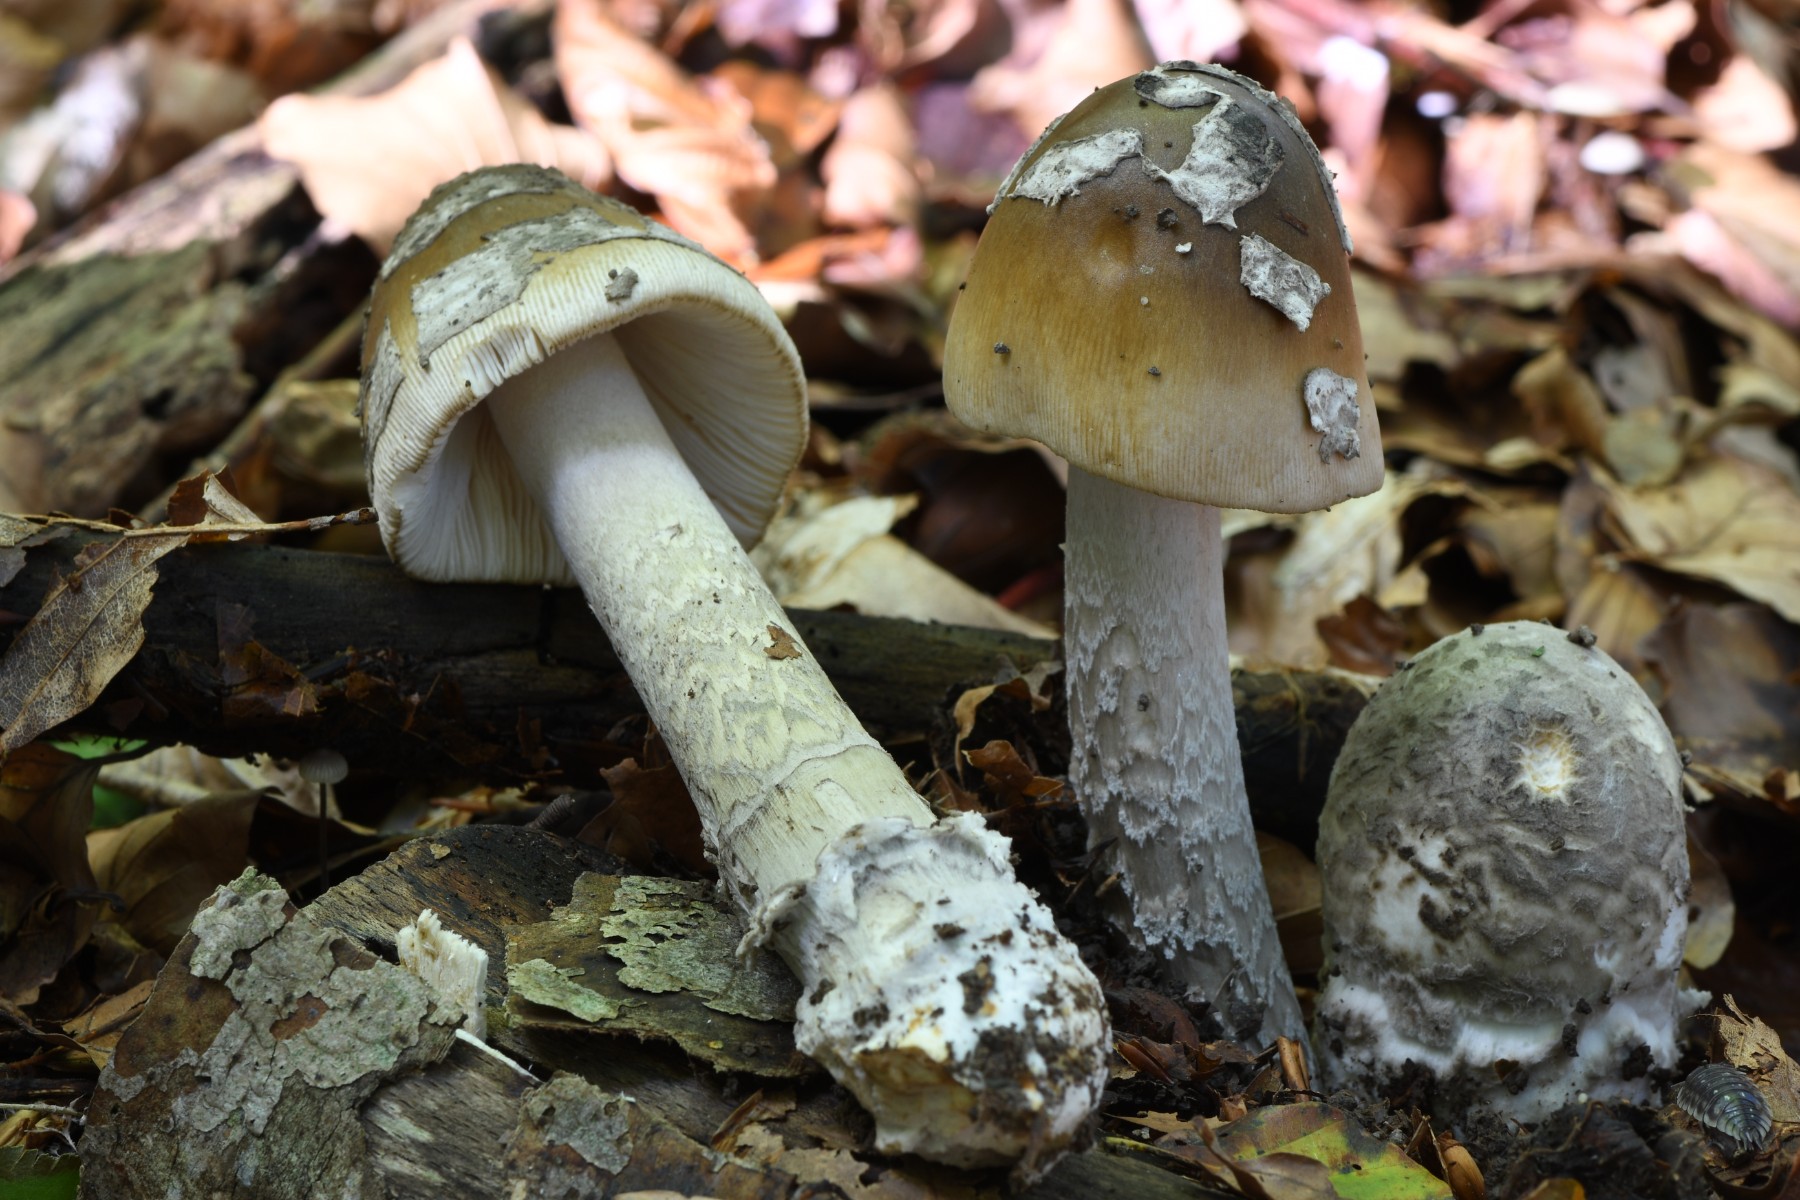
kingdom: Fungi
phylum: Basidiomycota
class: Agaricomycetes
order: Agaricales
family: Amanitaceae
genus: Amanita
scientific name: Amanita ceciliae
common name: stor kam-fluesvamp
